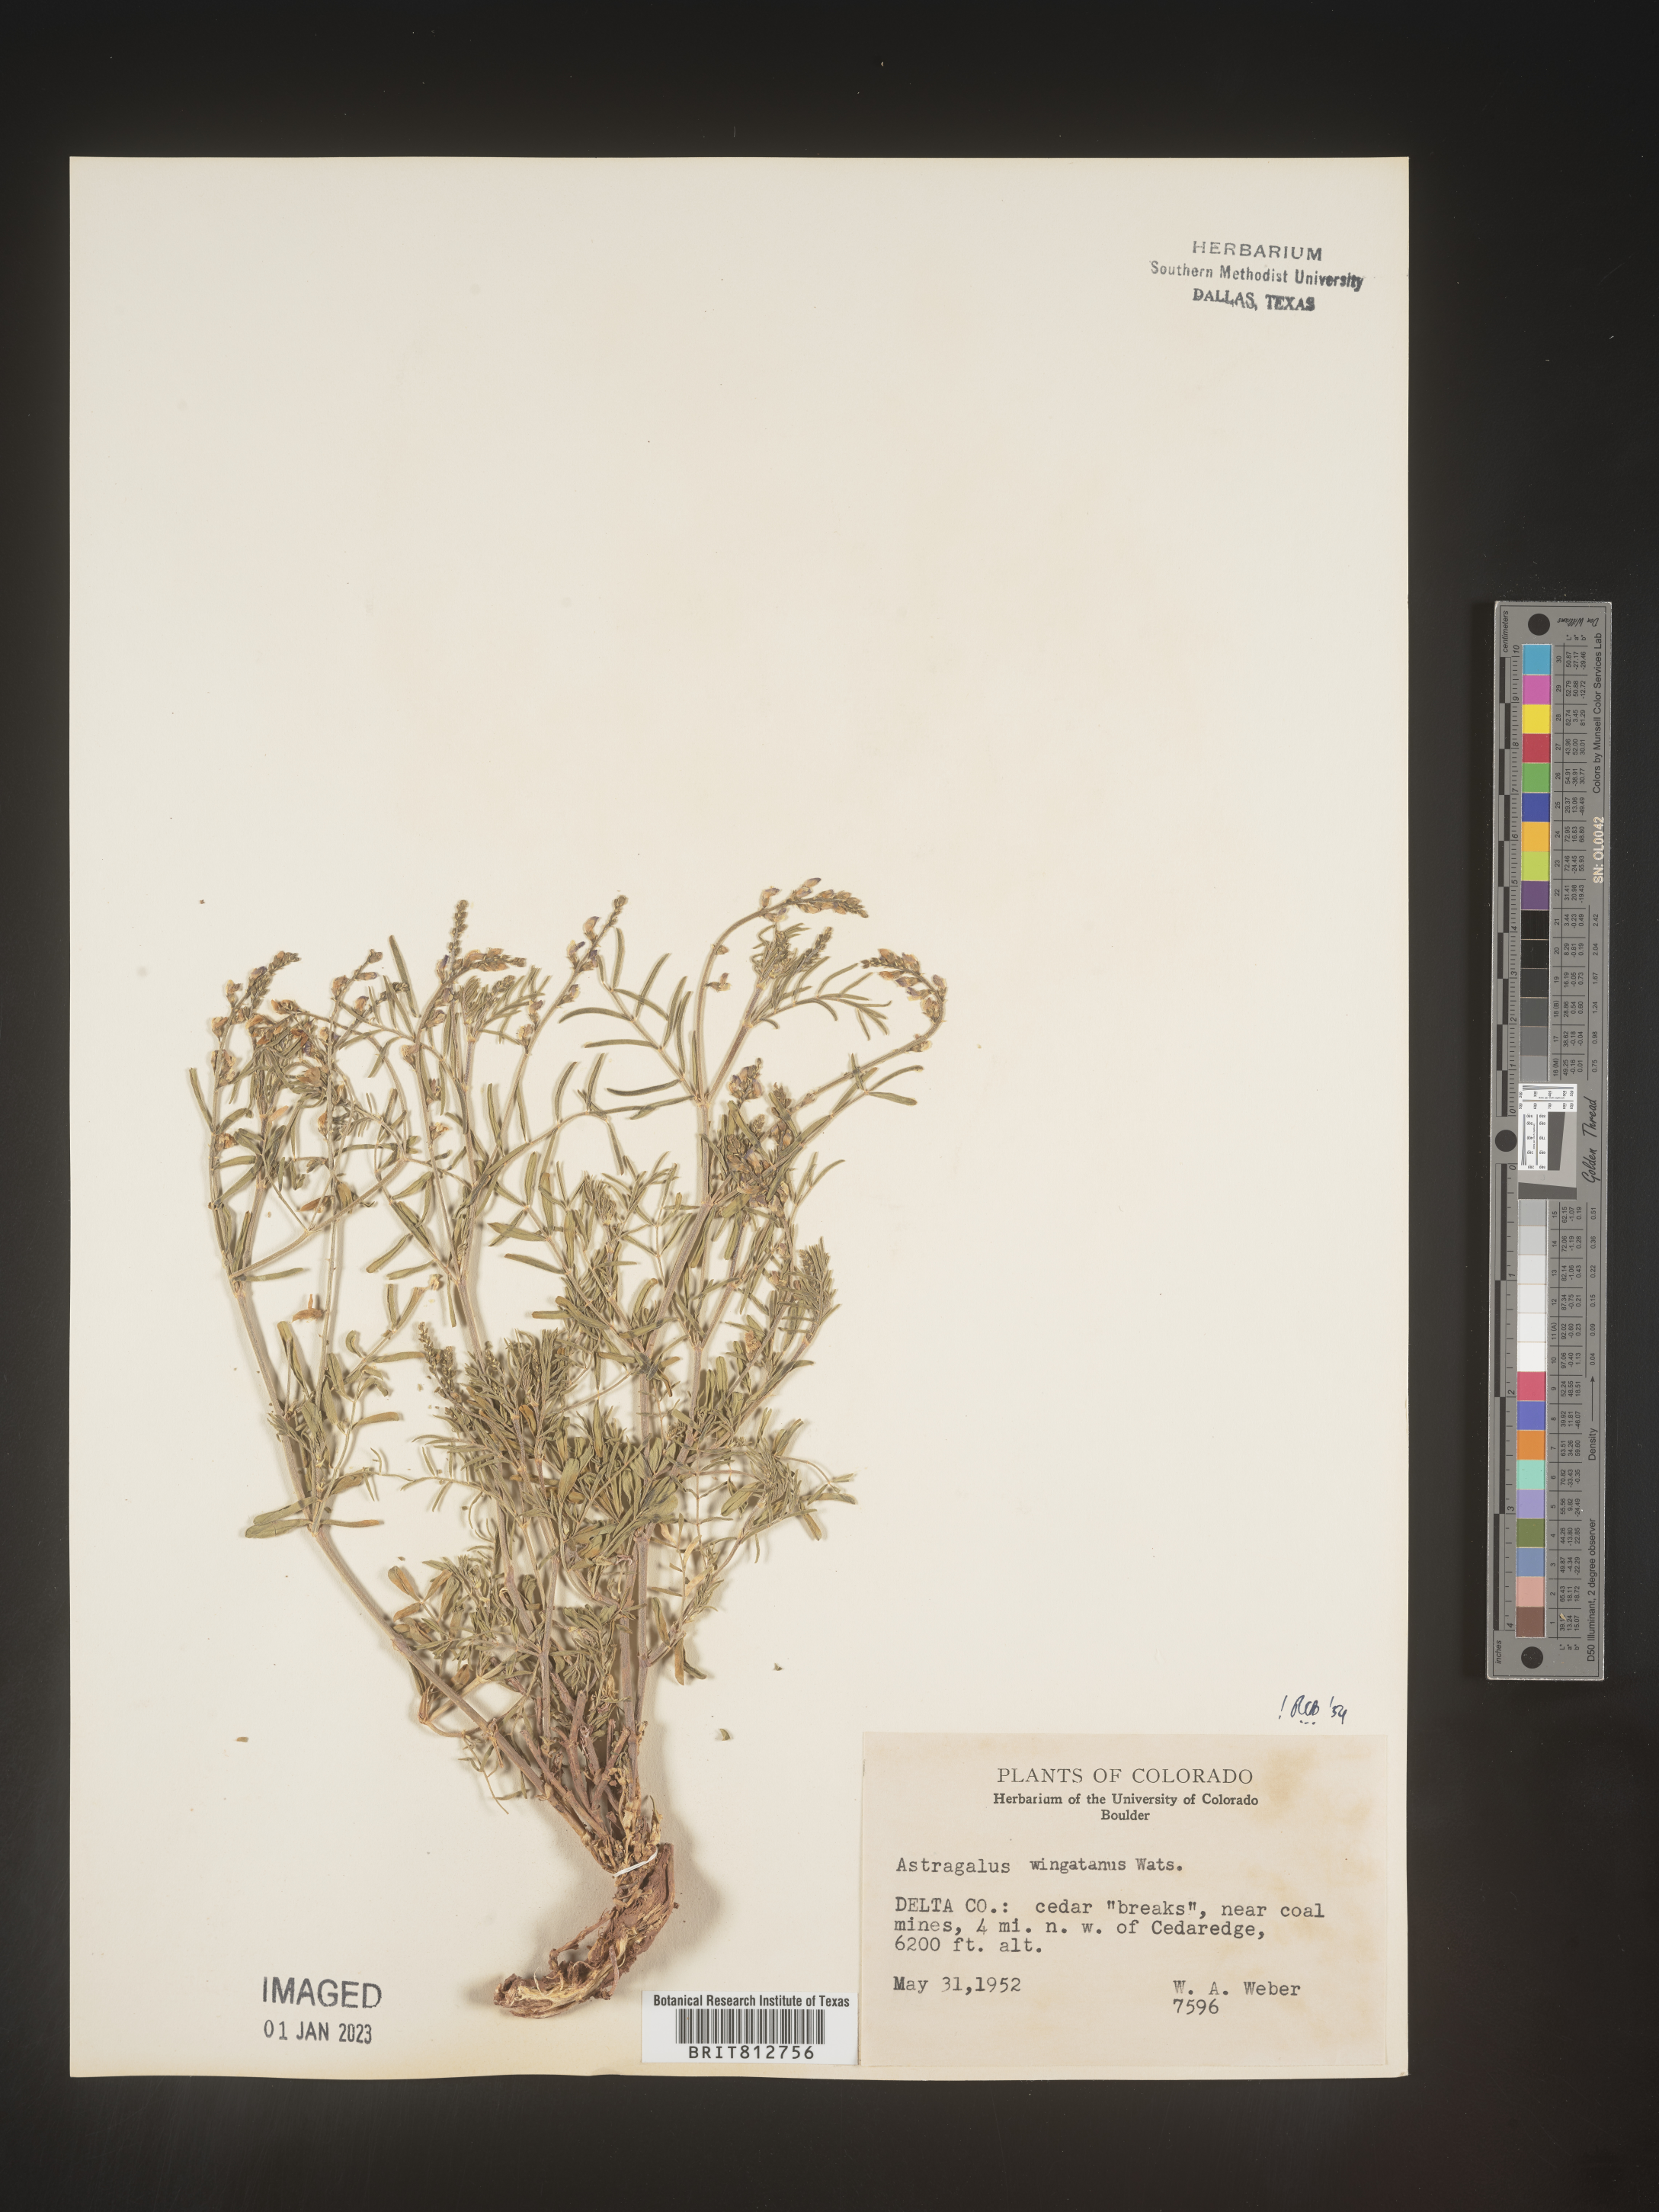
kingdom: Plantae
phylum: Tracheophyta
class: Magnoliopsida
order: Fabales
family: Fabaceae
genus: Astragalus
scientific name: Astragalus
